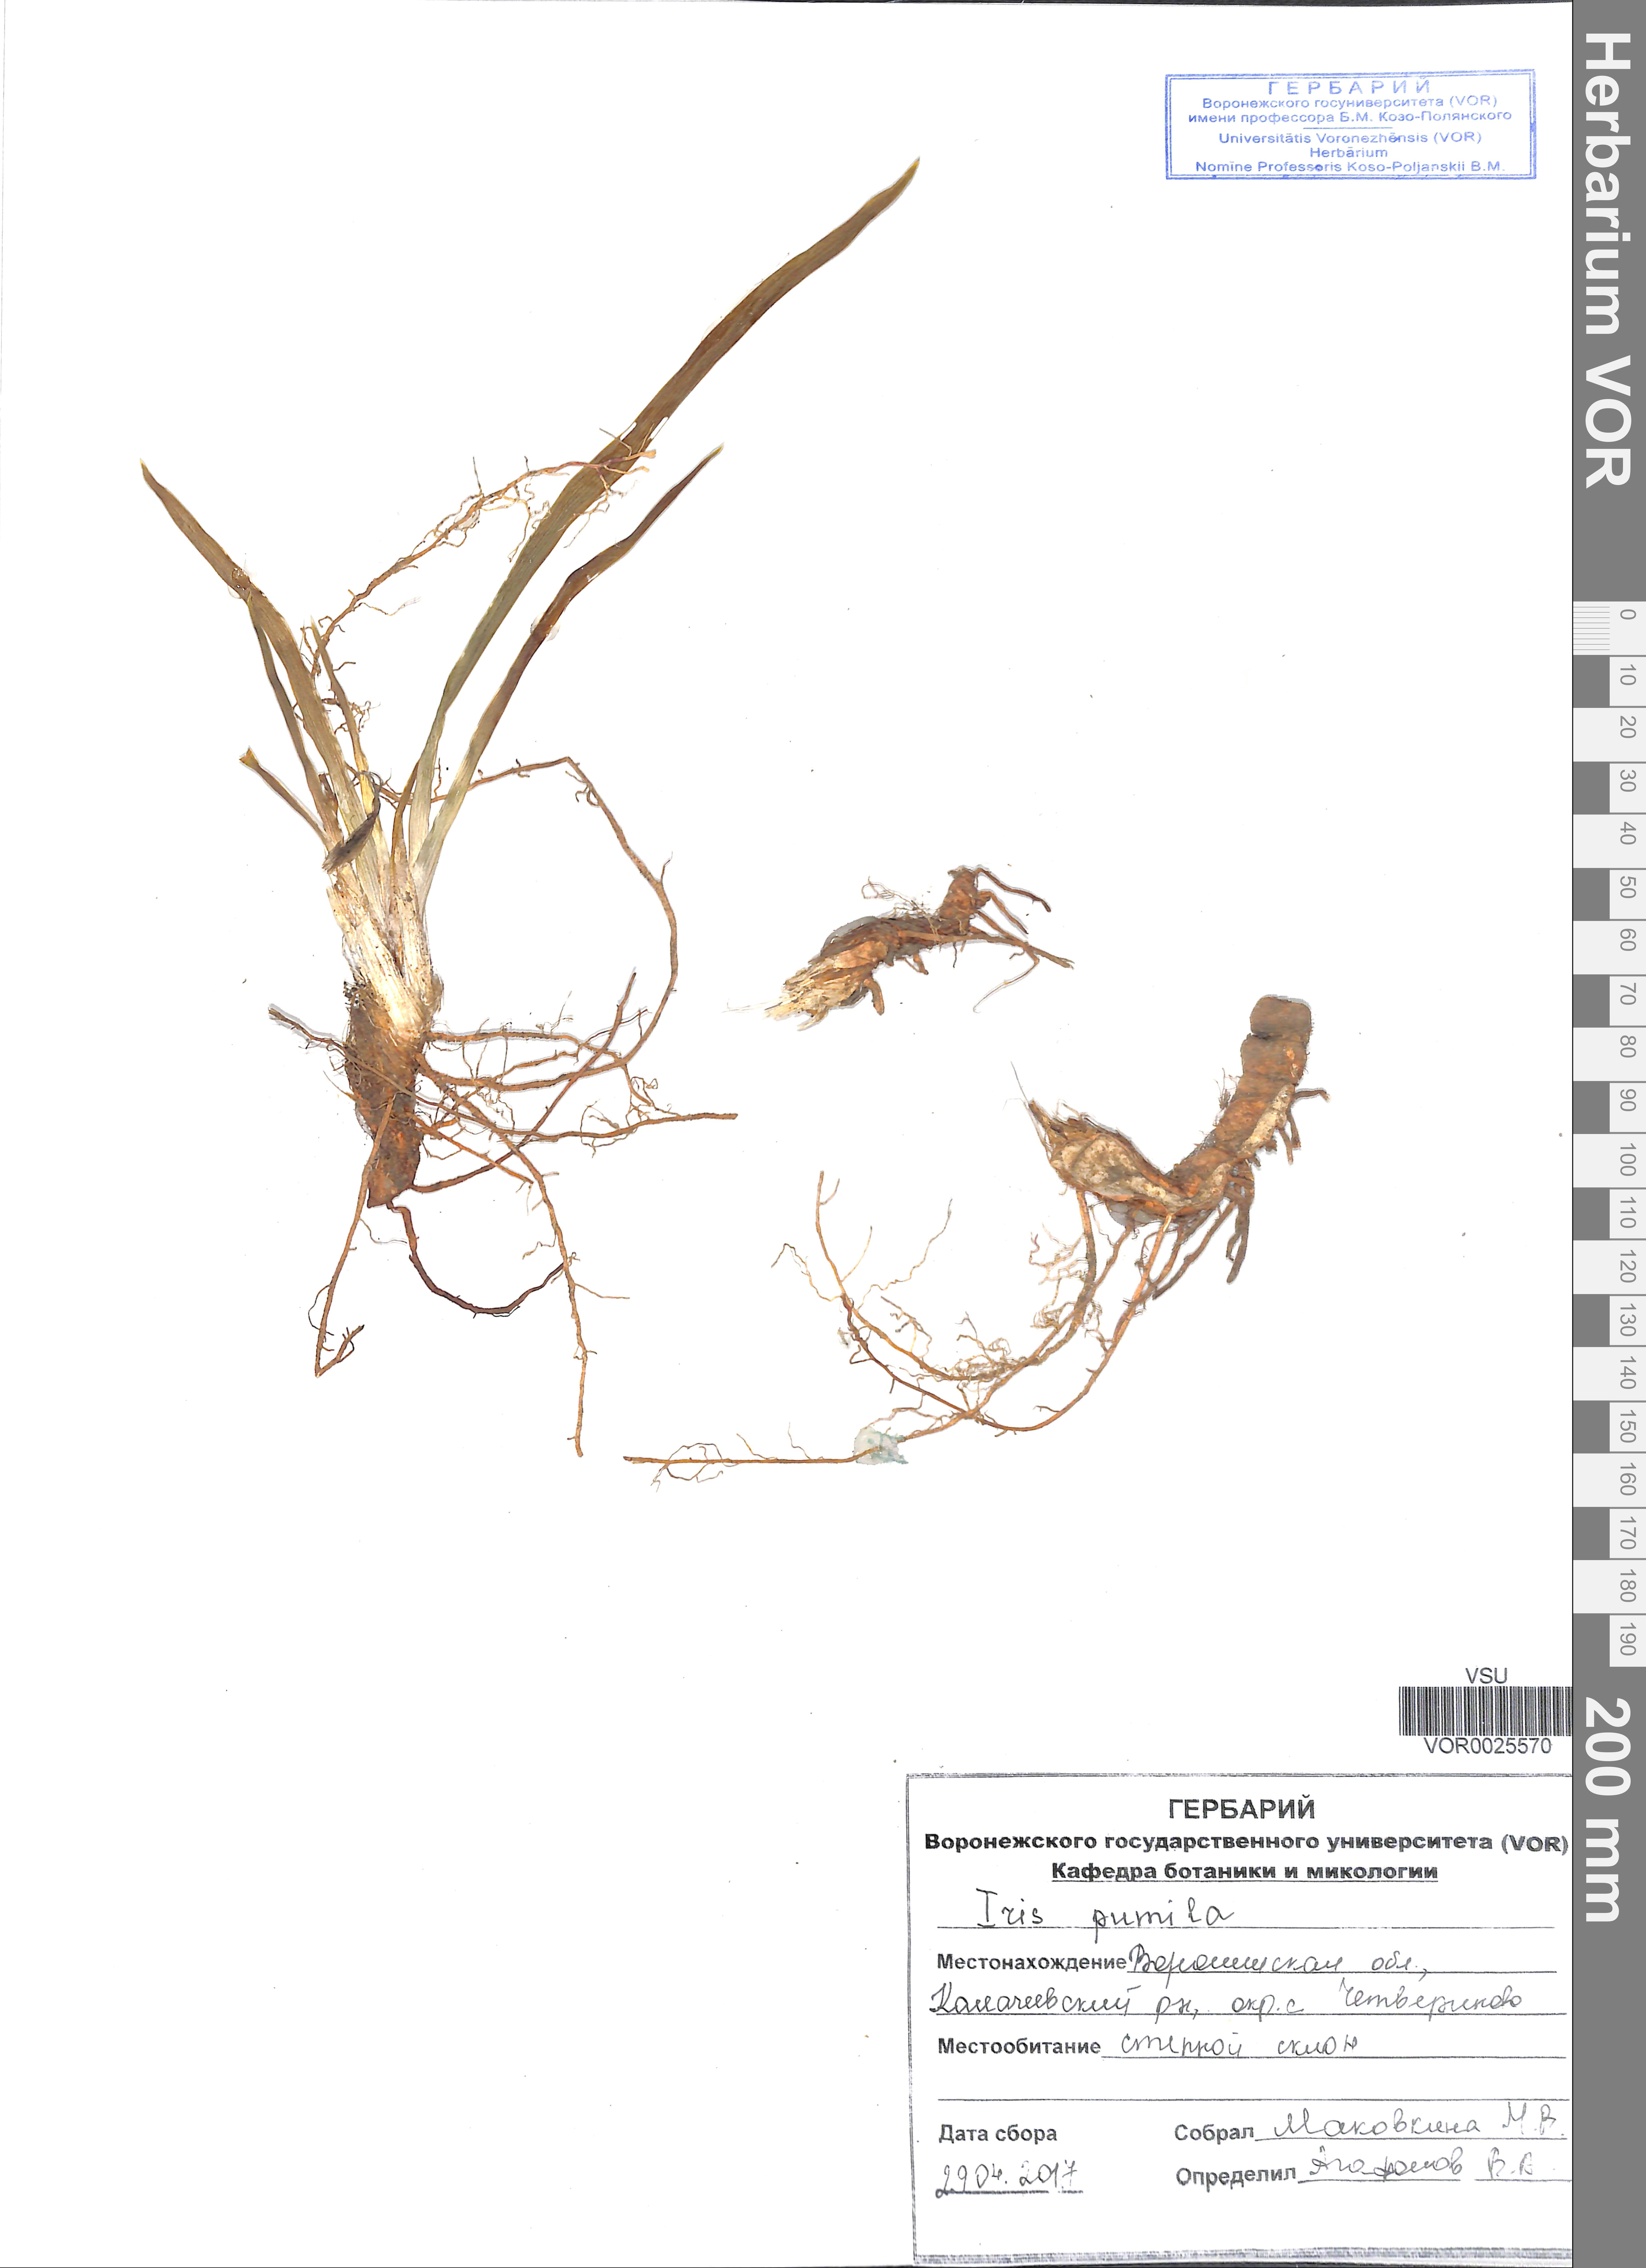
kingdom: Plantae
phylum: Tracheophyta
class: Liliopsida
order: Asparagales
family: Iridaceae
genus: Iris
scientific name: Iris pumila
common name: Dwarf iris
